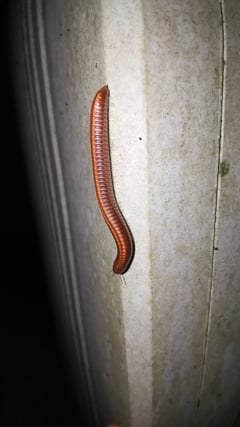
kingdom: Animalia
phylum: Arthropoda
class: Diplopoda
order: Julida
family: Julidae
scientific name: Julidae
